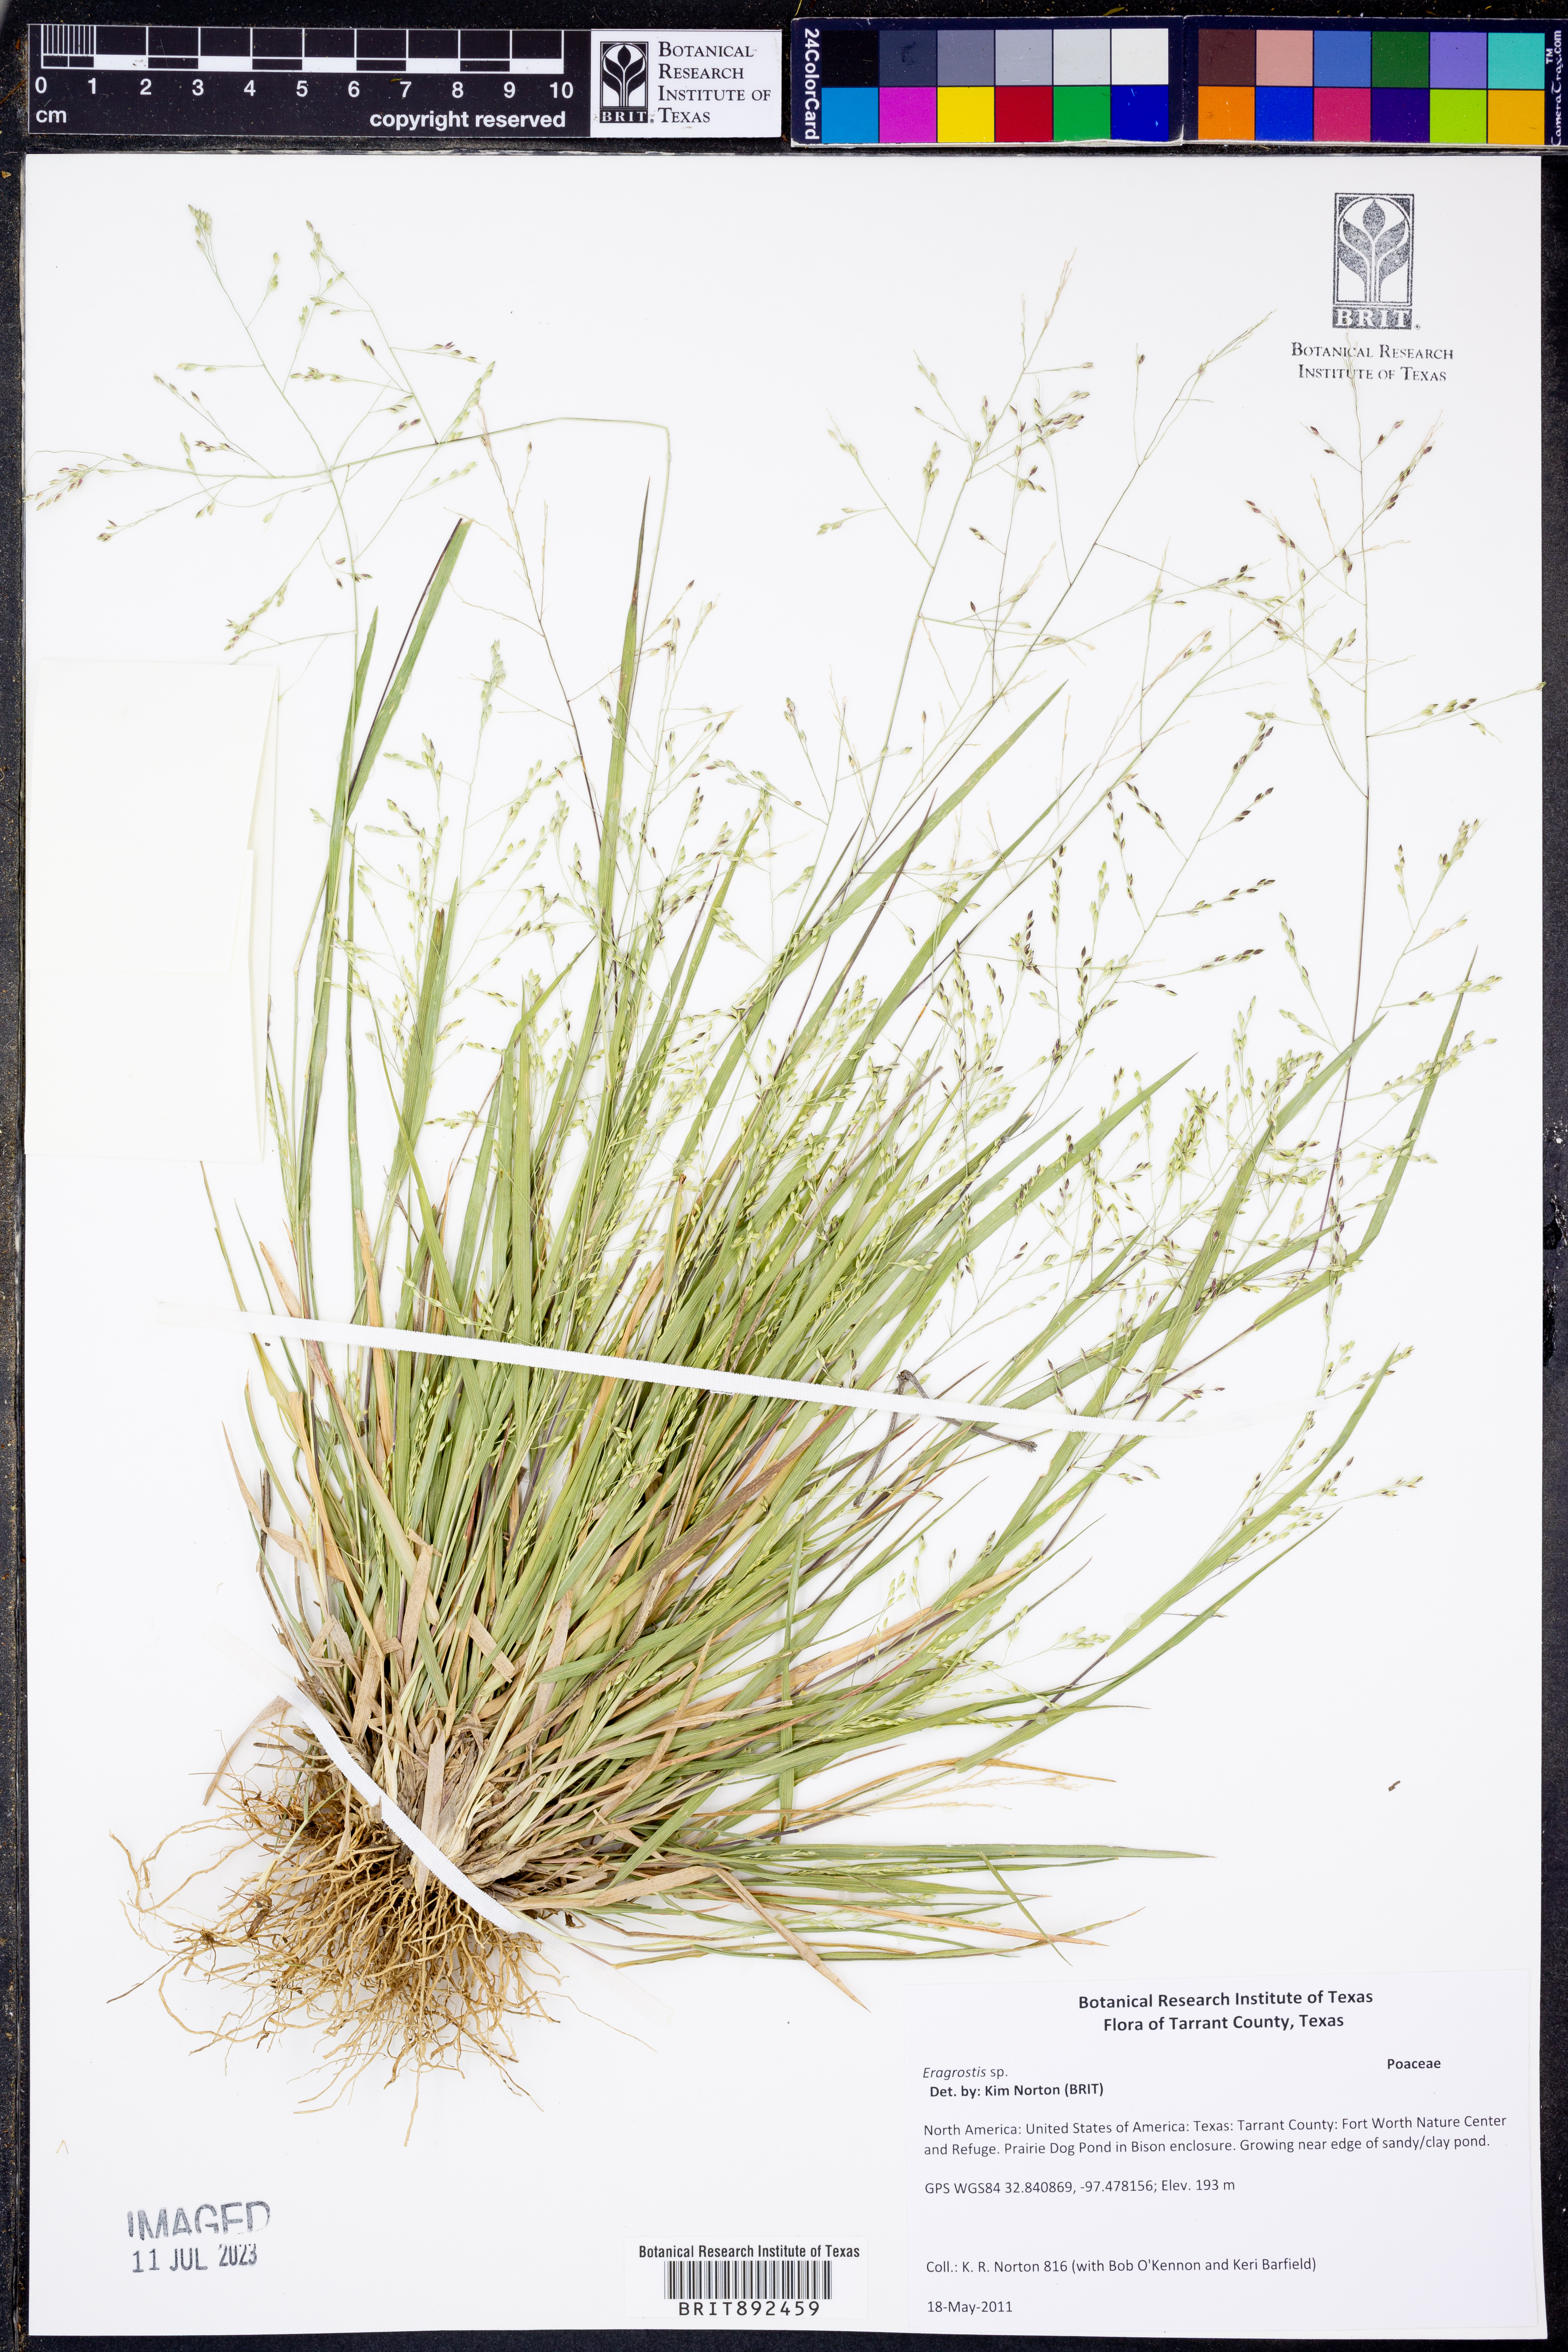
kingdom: Plantae
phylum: Tracheophyta
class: Liliopsida
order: Poales
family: Poaceae
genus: Eragrostis
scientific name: Eragrostis
